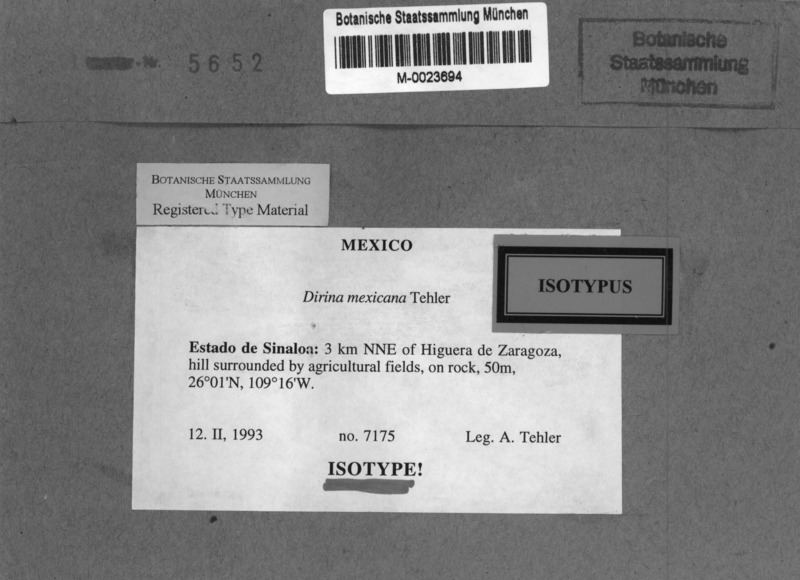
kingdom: Fungi
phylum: Ascomycota
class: Arthoniomycetes
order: Arthoniales
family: Roccellaceae
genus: Dirina
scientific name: Dirina mexicana
